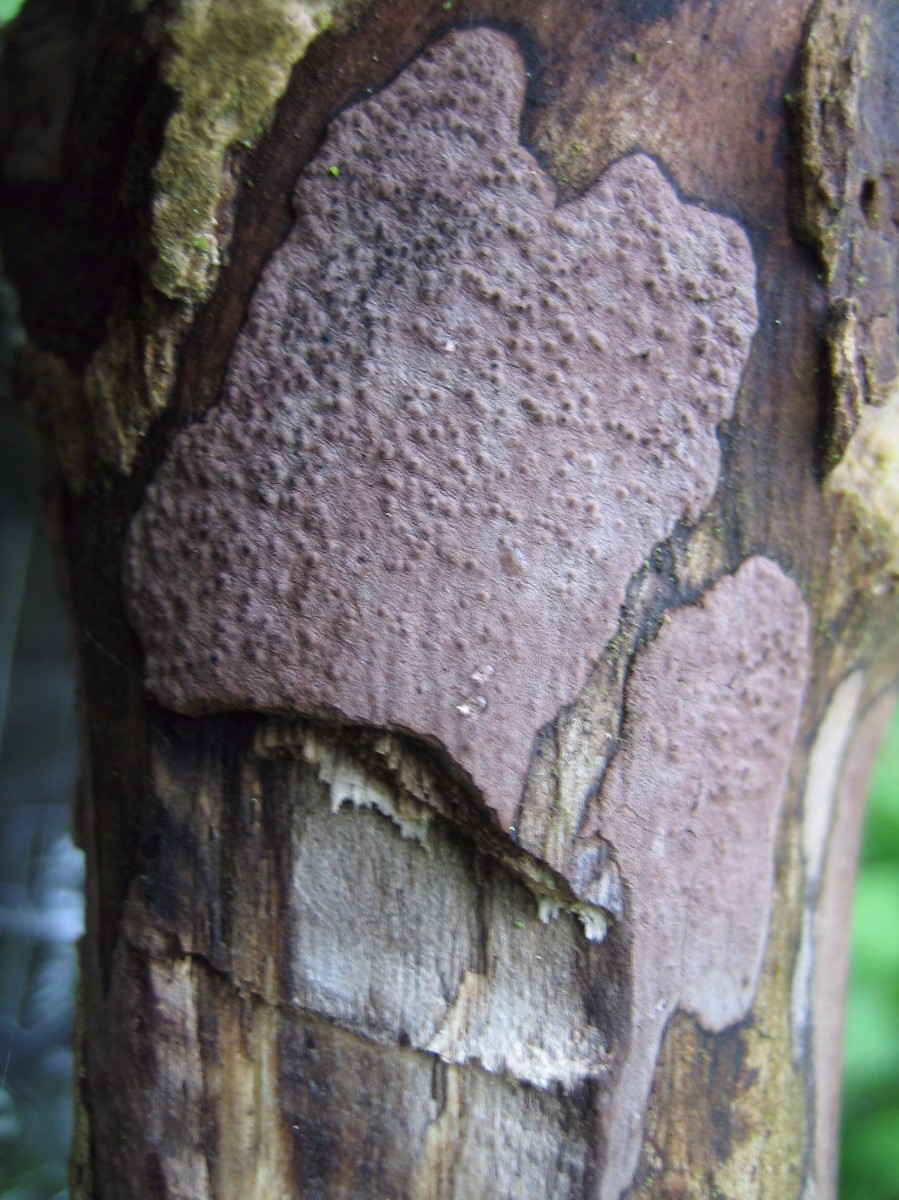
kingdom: Fungi
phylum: Ascomycota
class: Sordariomycetes
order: Xylariales
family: Hypoxylaceae
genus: Hypoxylon
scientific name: Hypoxylon petriniae
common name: nedsænket kulbær
